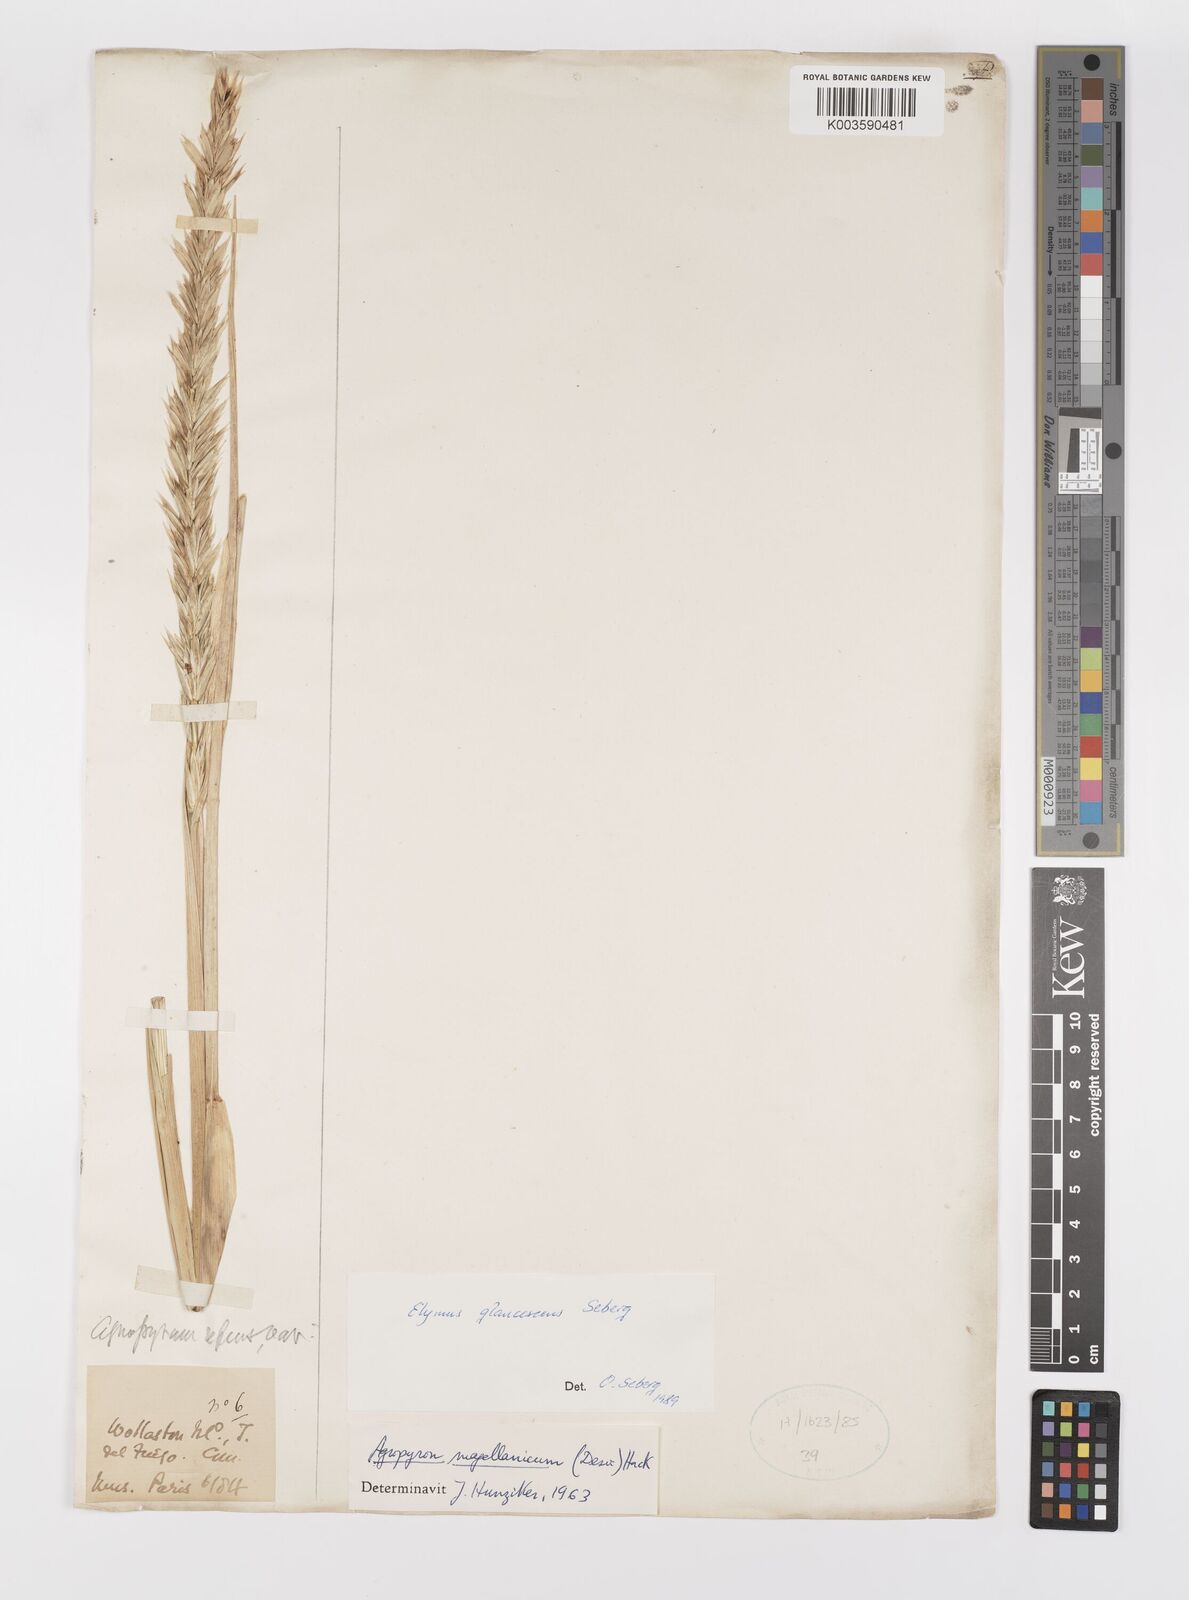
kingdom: Plantae
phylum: Tracheophyta
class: Liliopsida
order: Poales
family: Poaceae
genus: Elymus
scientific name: Elymus magellanicus
